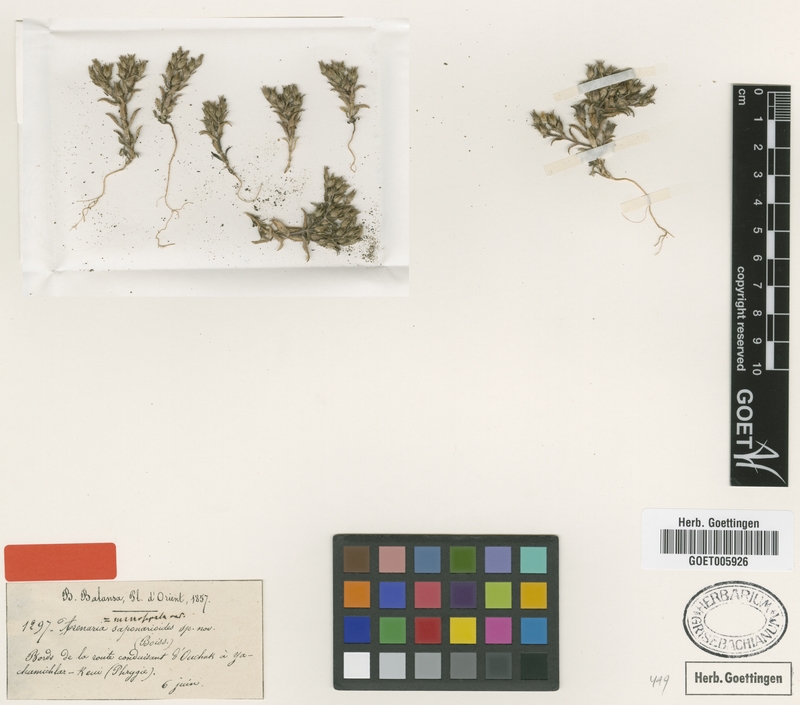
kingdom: Plantae
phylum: Tracheophyta
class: Magnoliopsida
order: Caryophyllales
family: Caryophyllaceae
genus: Arenaria
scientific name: Arenaria saponarioides
